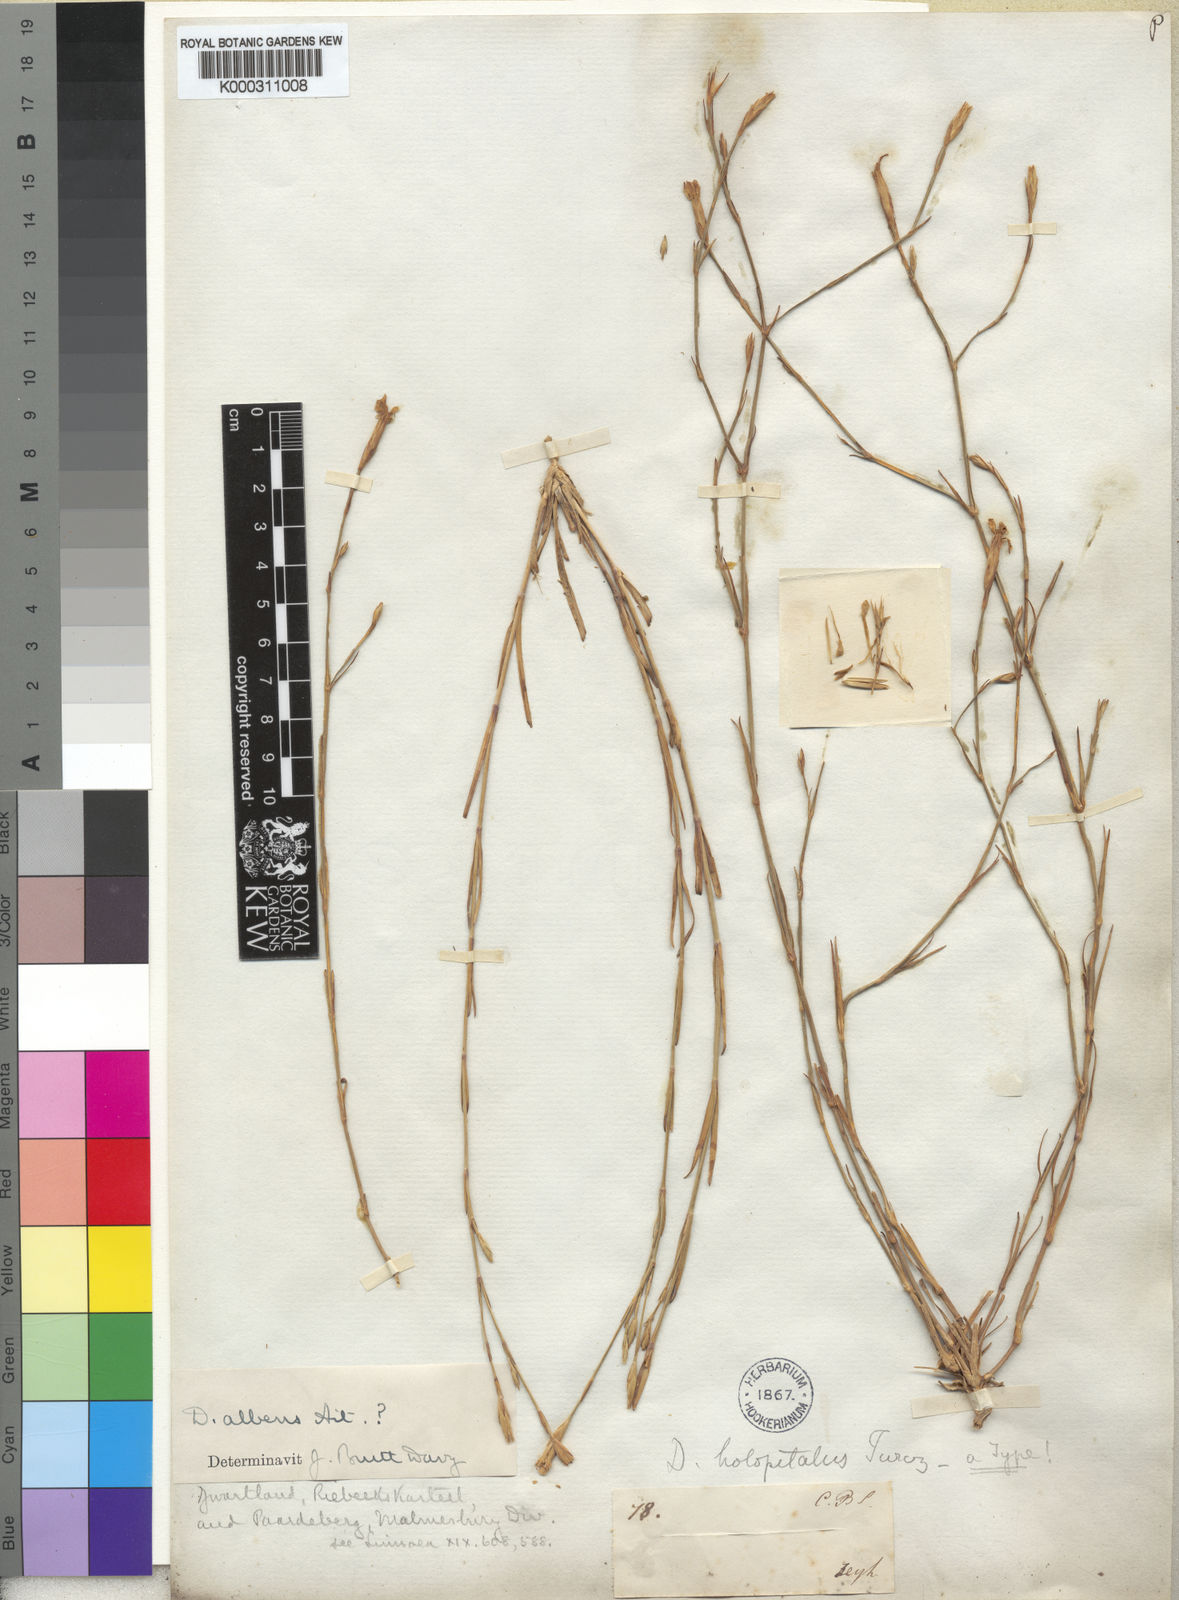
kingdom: Plantae
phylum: Tracheophyta
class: Magnoliopsida
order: Caryophyllales
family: Caryophyllaceae
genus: Dianthus
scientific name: Dianthus albens
